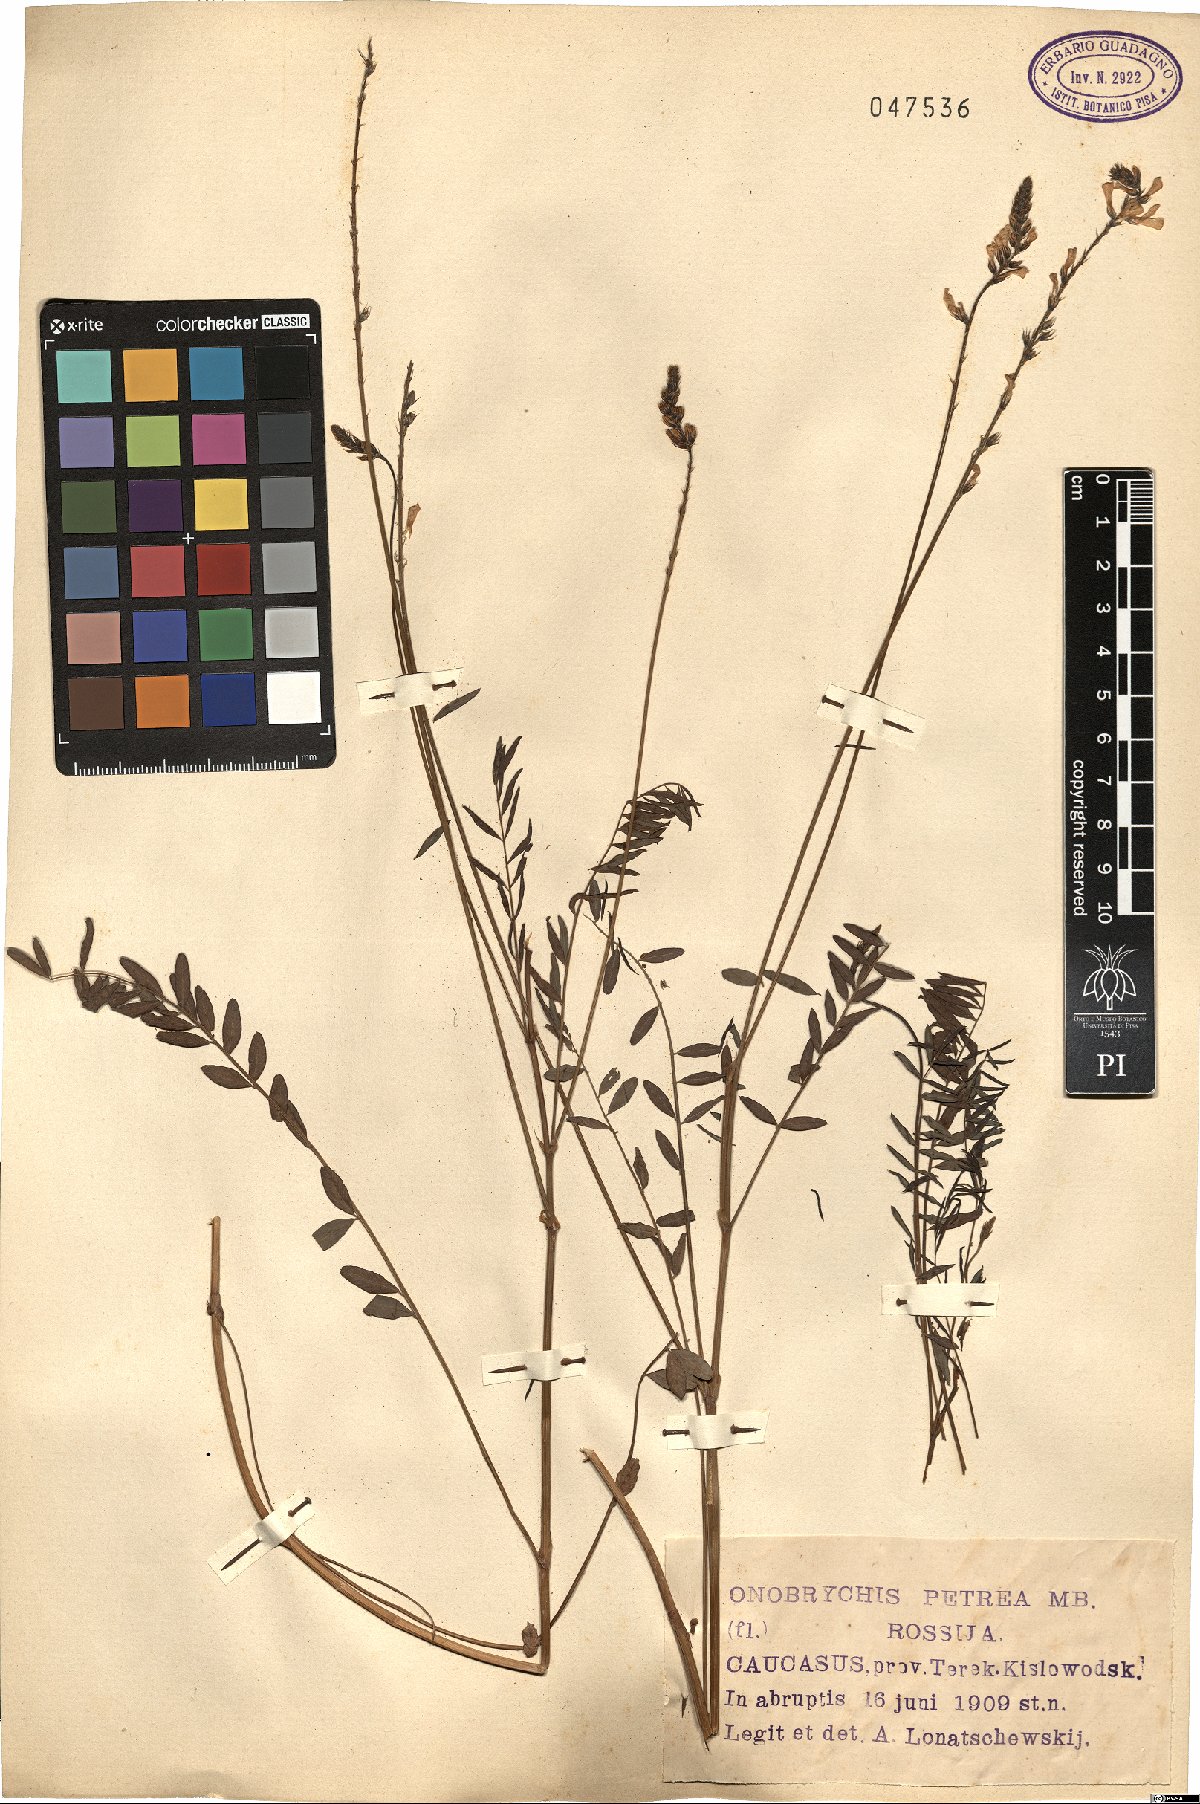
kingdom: Plantae
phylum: Tracheophyta
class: Magnoliopsida
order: Fabales
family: Fabaceae
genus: Onobrychis
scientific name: Onobrychis petraea
